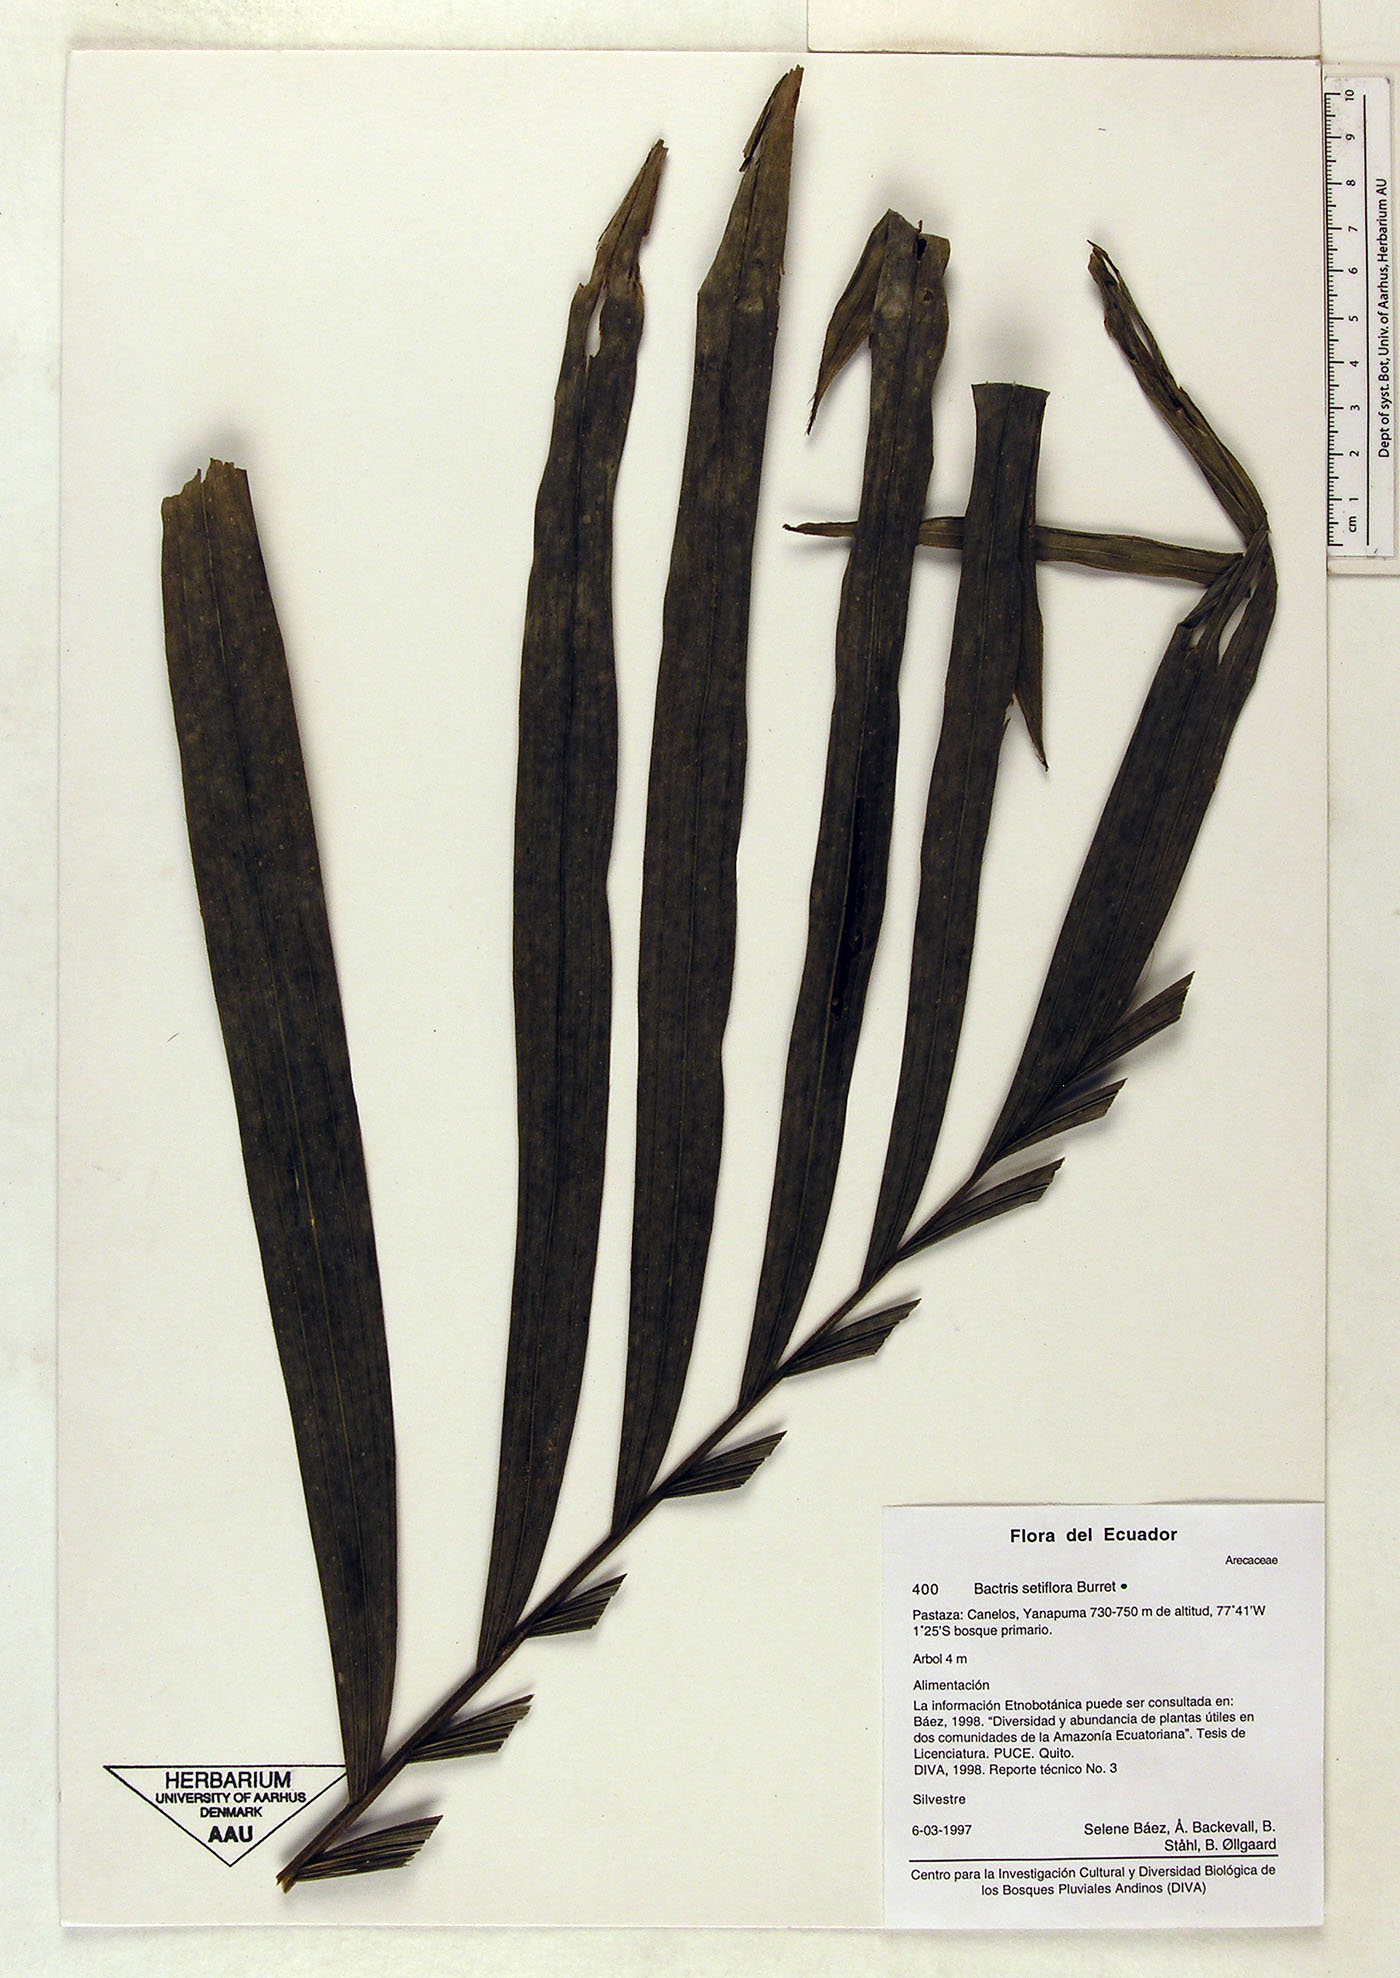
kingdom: Plantae
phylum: Tracheophyta
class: Liliopsida
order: Arecales
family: Arecaceae
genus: Bactris
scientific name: Bactris setiflora
